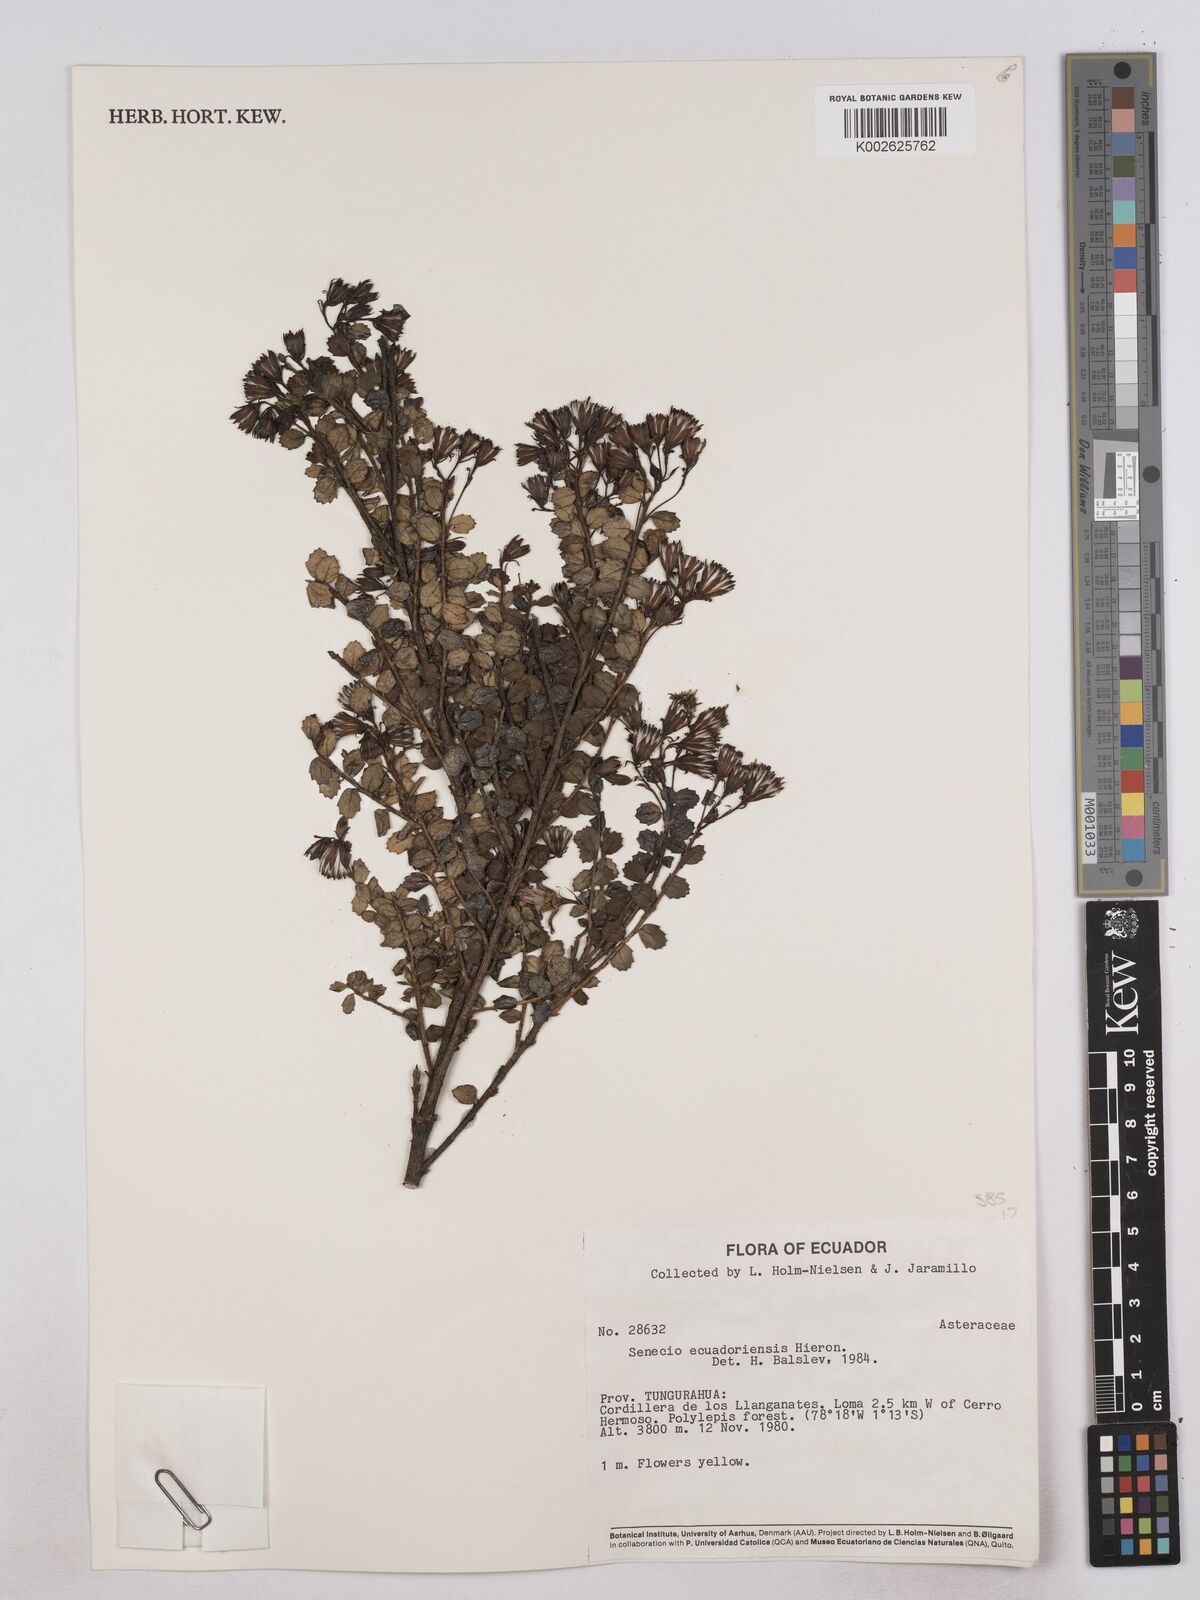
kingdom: Plantae
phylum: Tracheophyta
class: Magnoliopsida
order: Asterales
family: Asteraceae
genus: Monticalia
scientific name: Monticalia myrsinites
